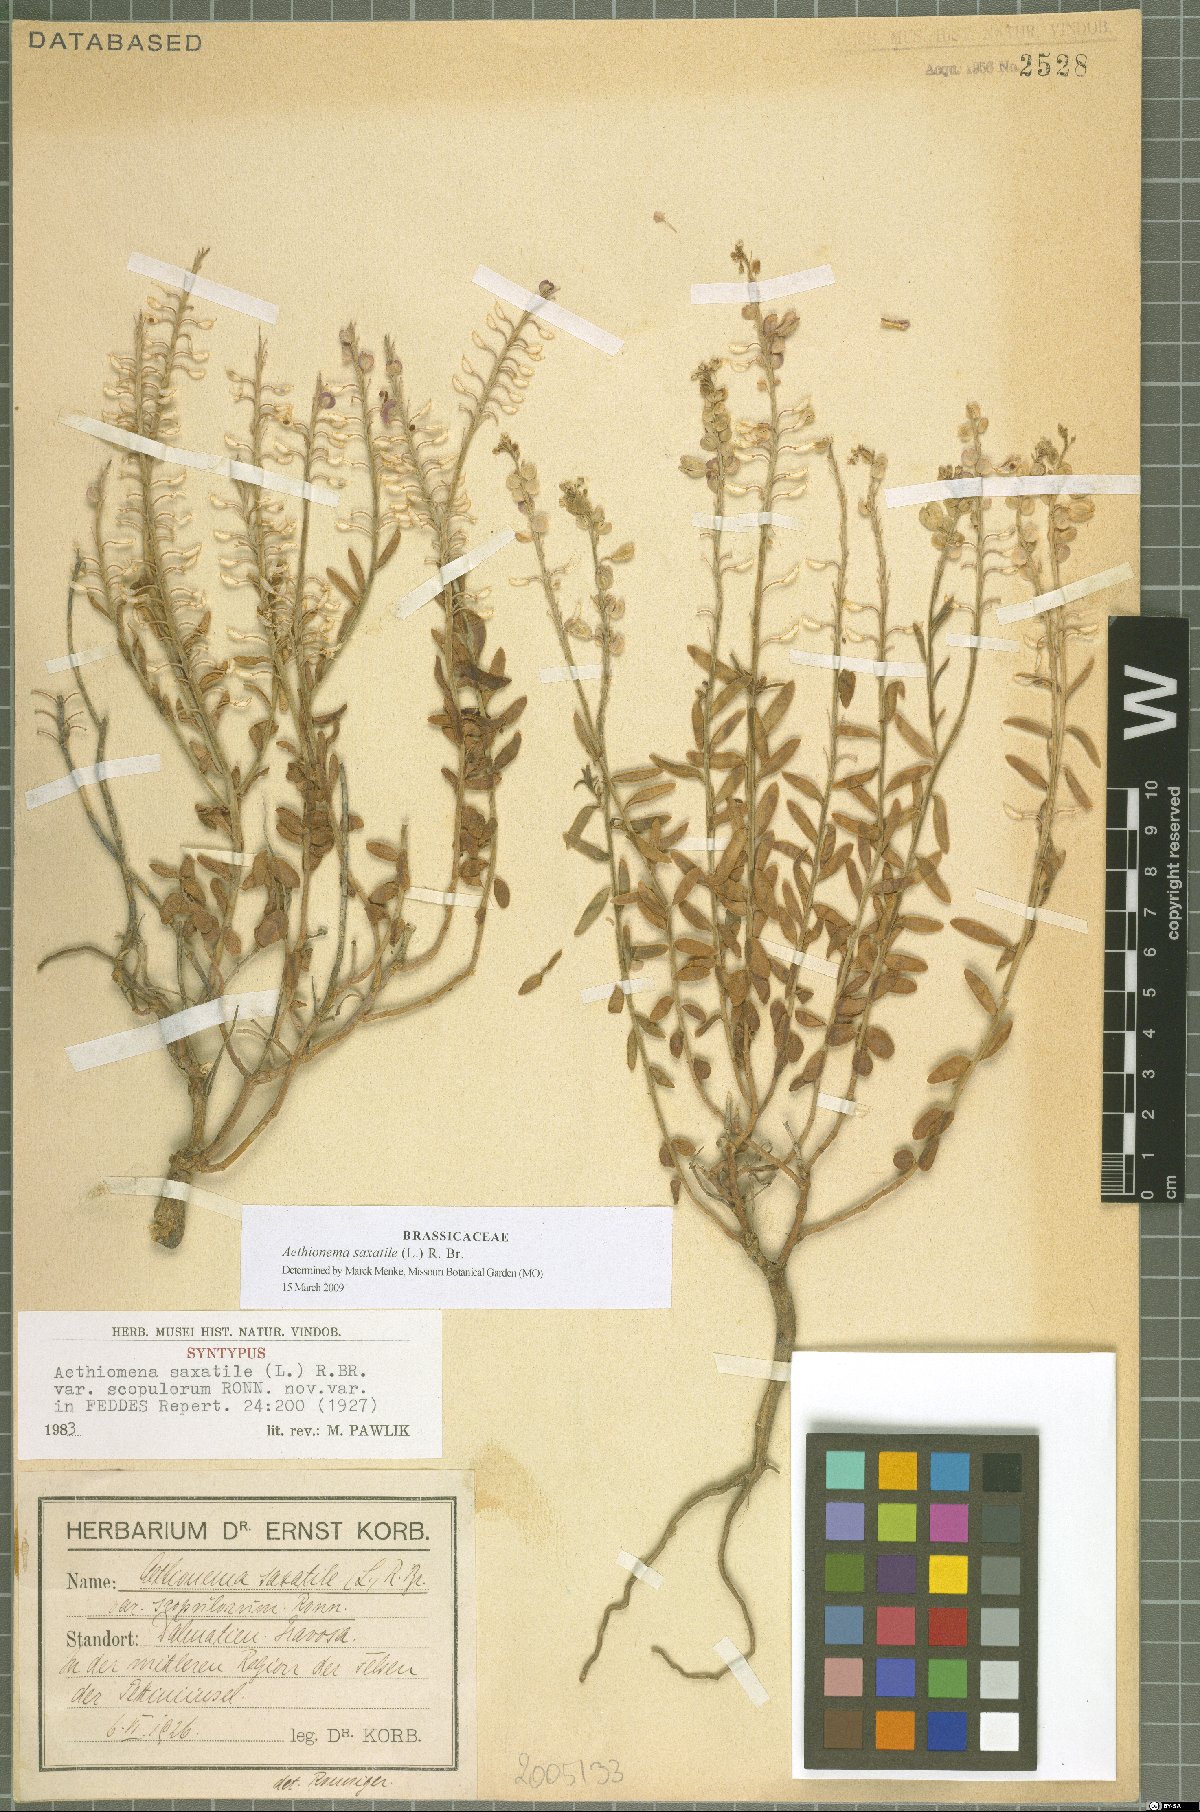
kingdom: Plantae
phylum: Tracheophyta
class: Magnoliopsida
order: Brassicales
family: Brassicaceae
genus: Aethionema
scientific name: Aethionema saxatile
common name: Burnt candytuft
